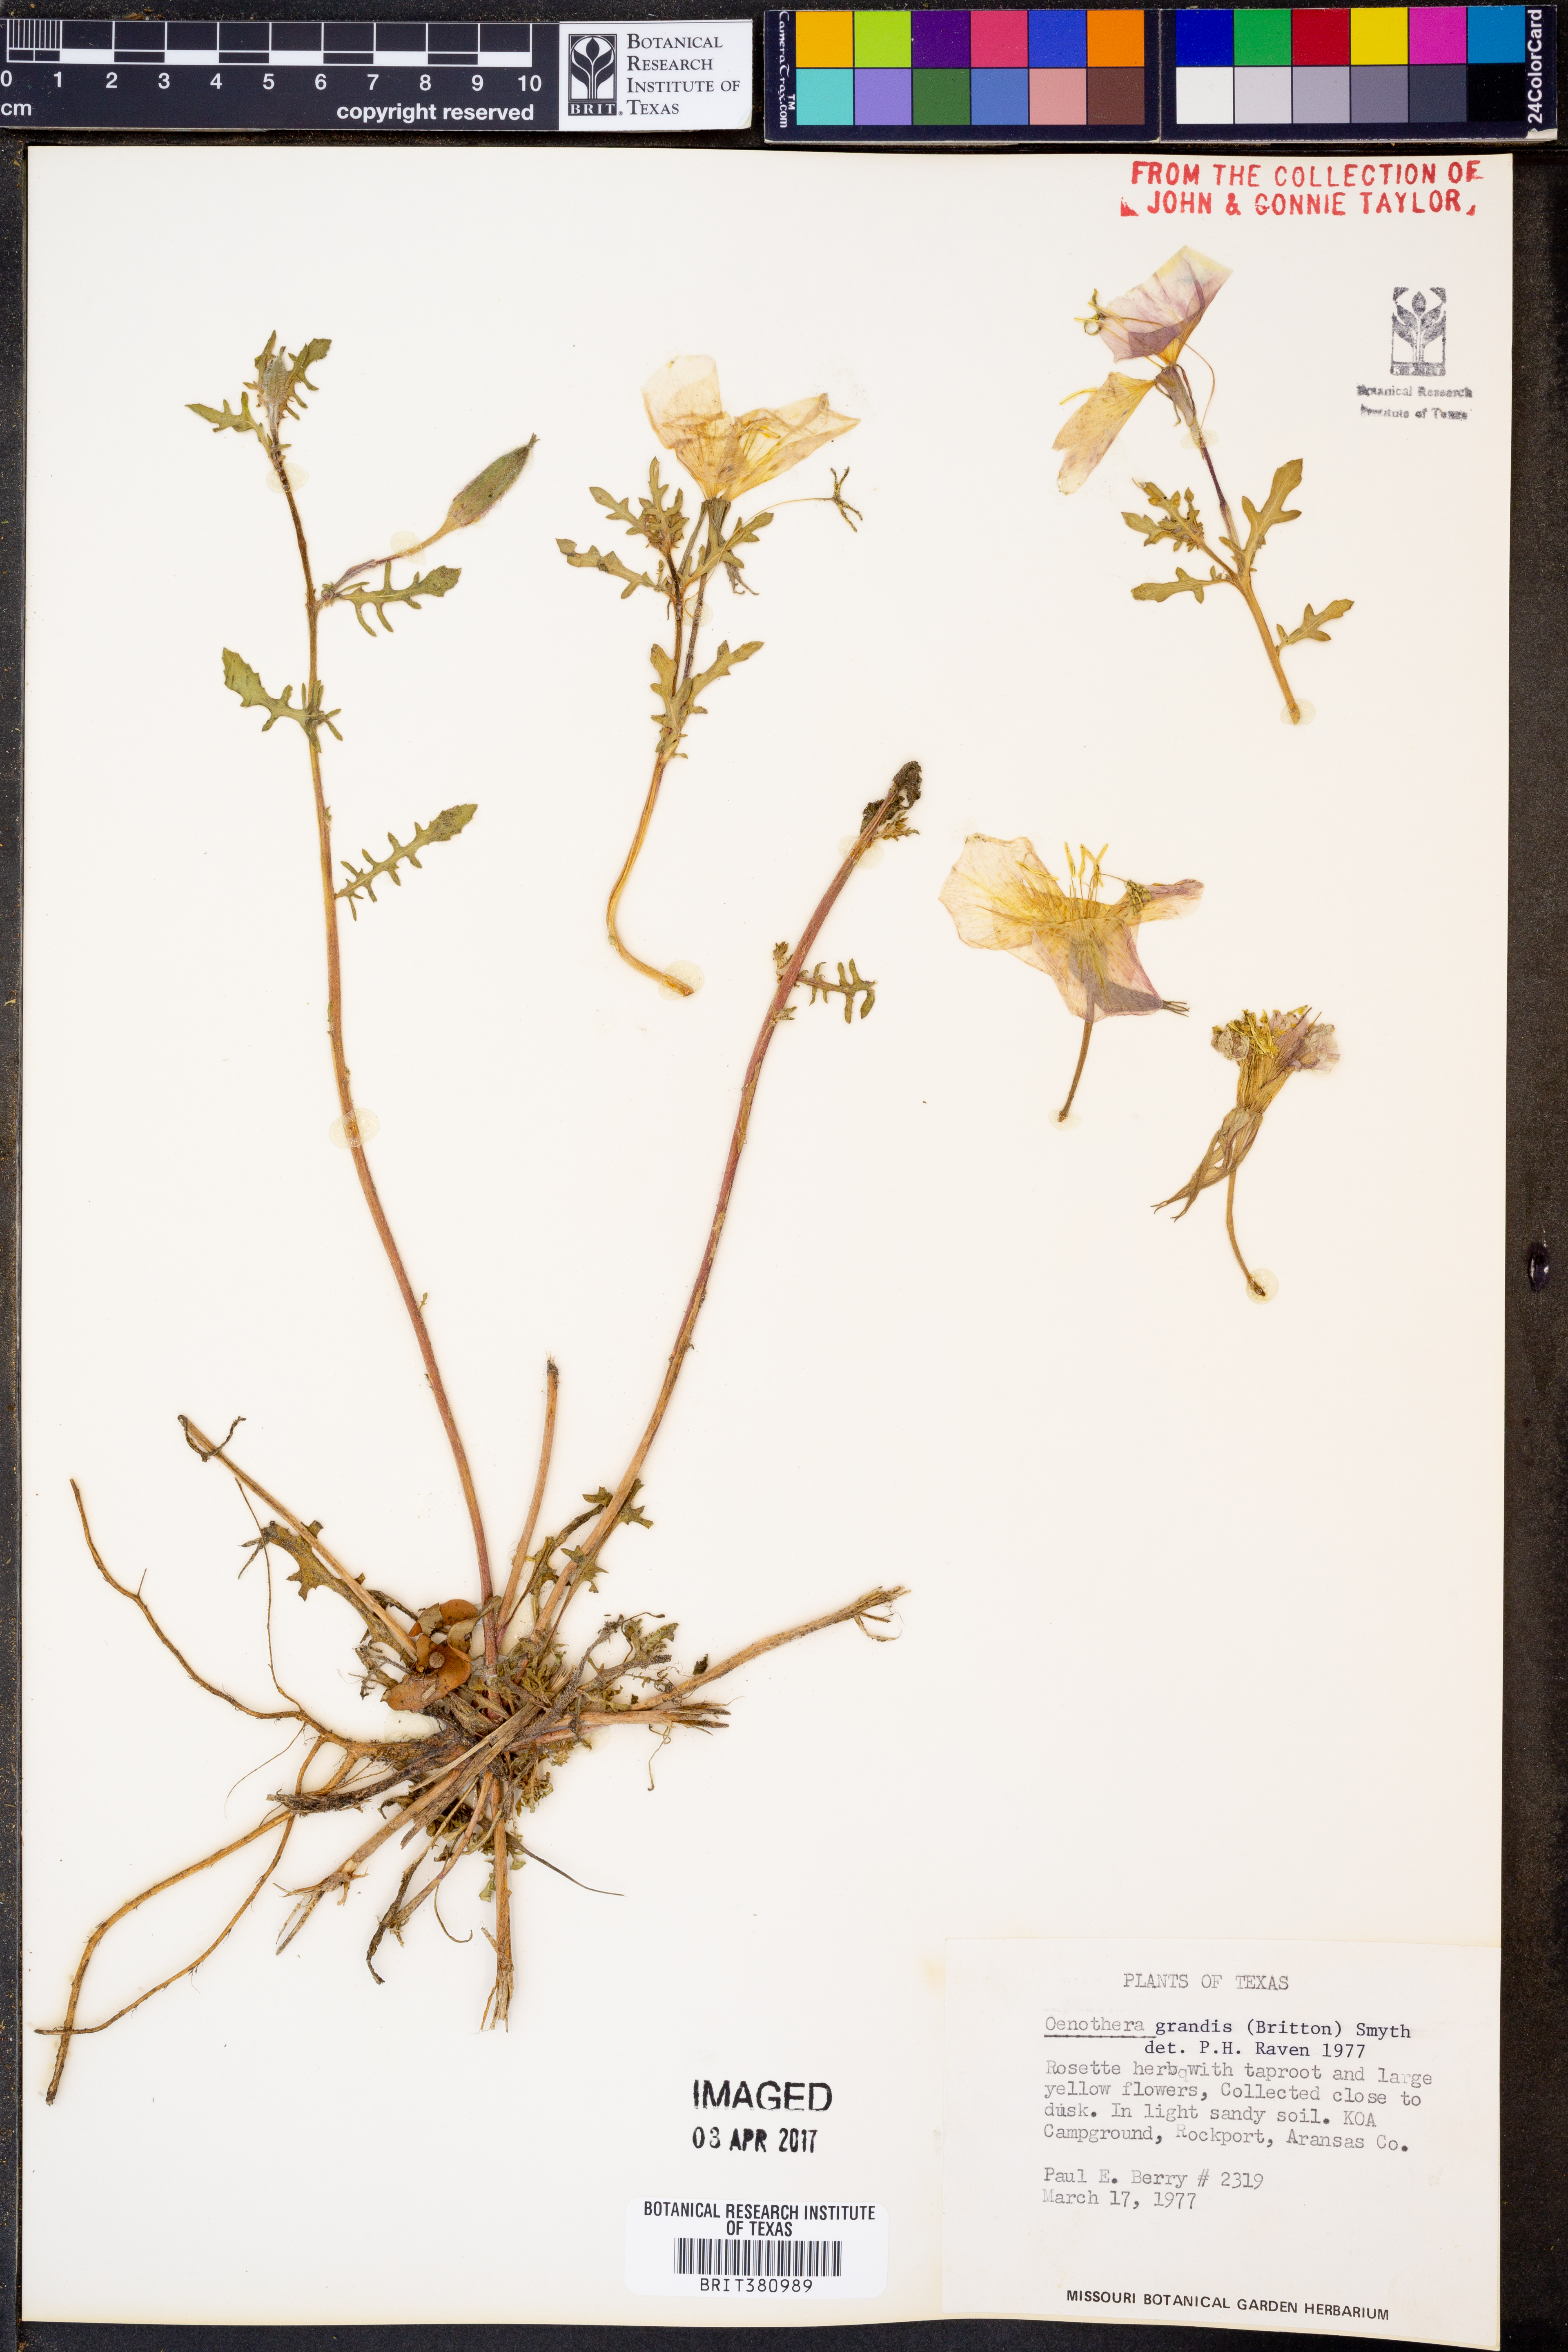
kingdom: Plantae
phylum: Tracheophyta
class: Magnoliopsida
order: Myrtales
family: Onagraceae
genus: Oenothera
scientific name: Oenothera grandis
